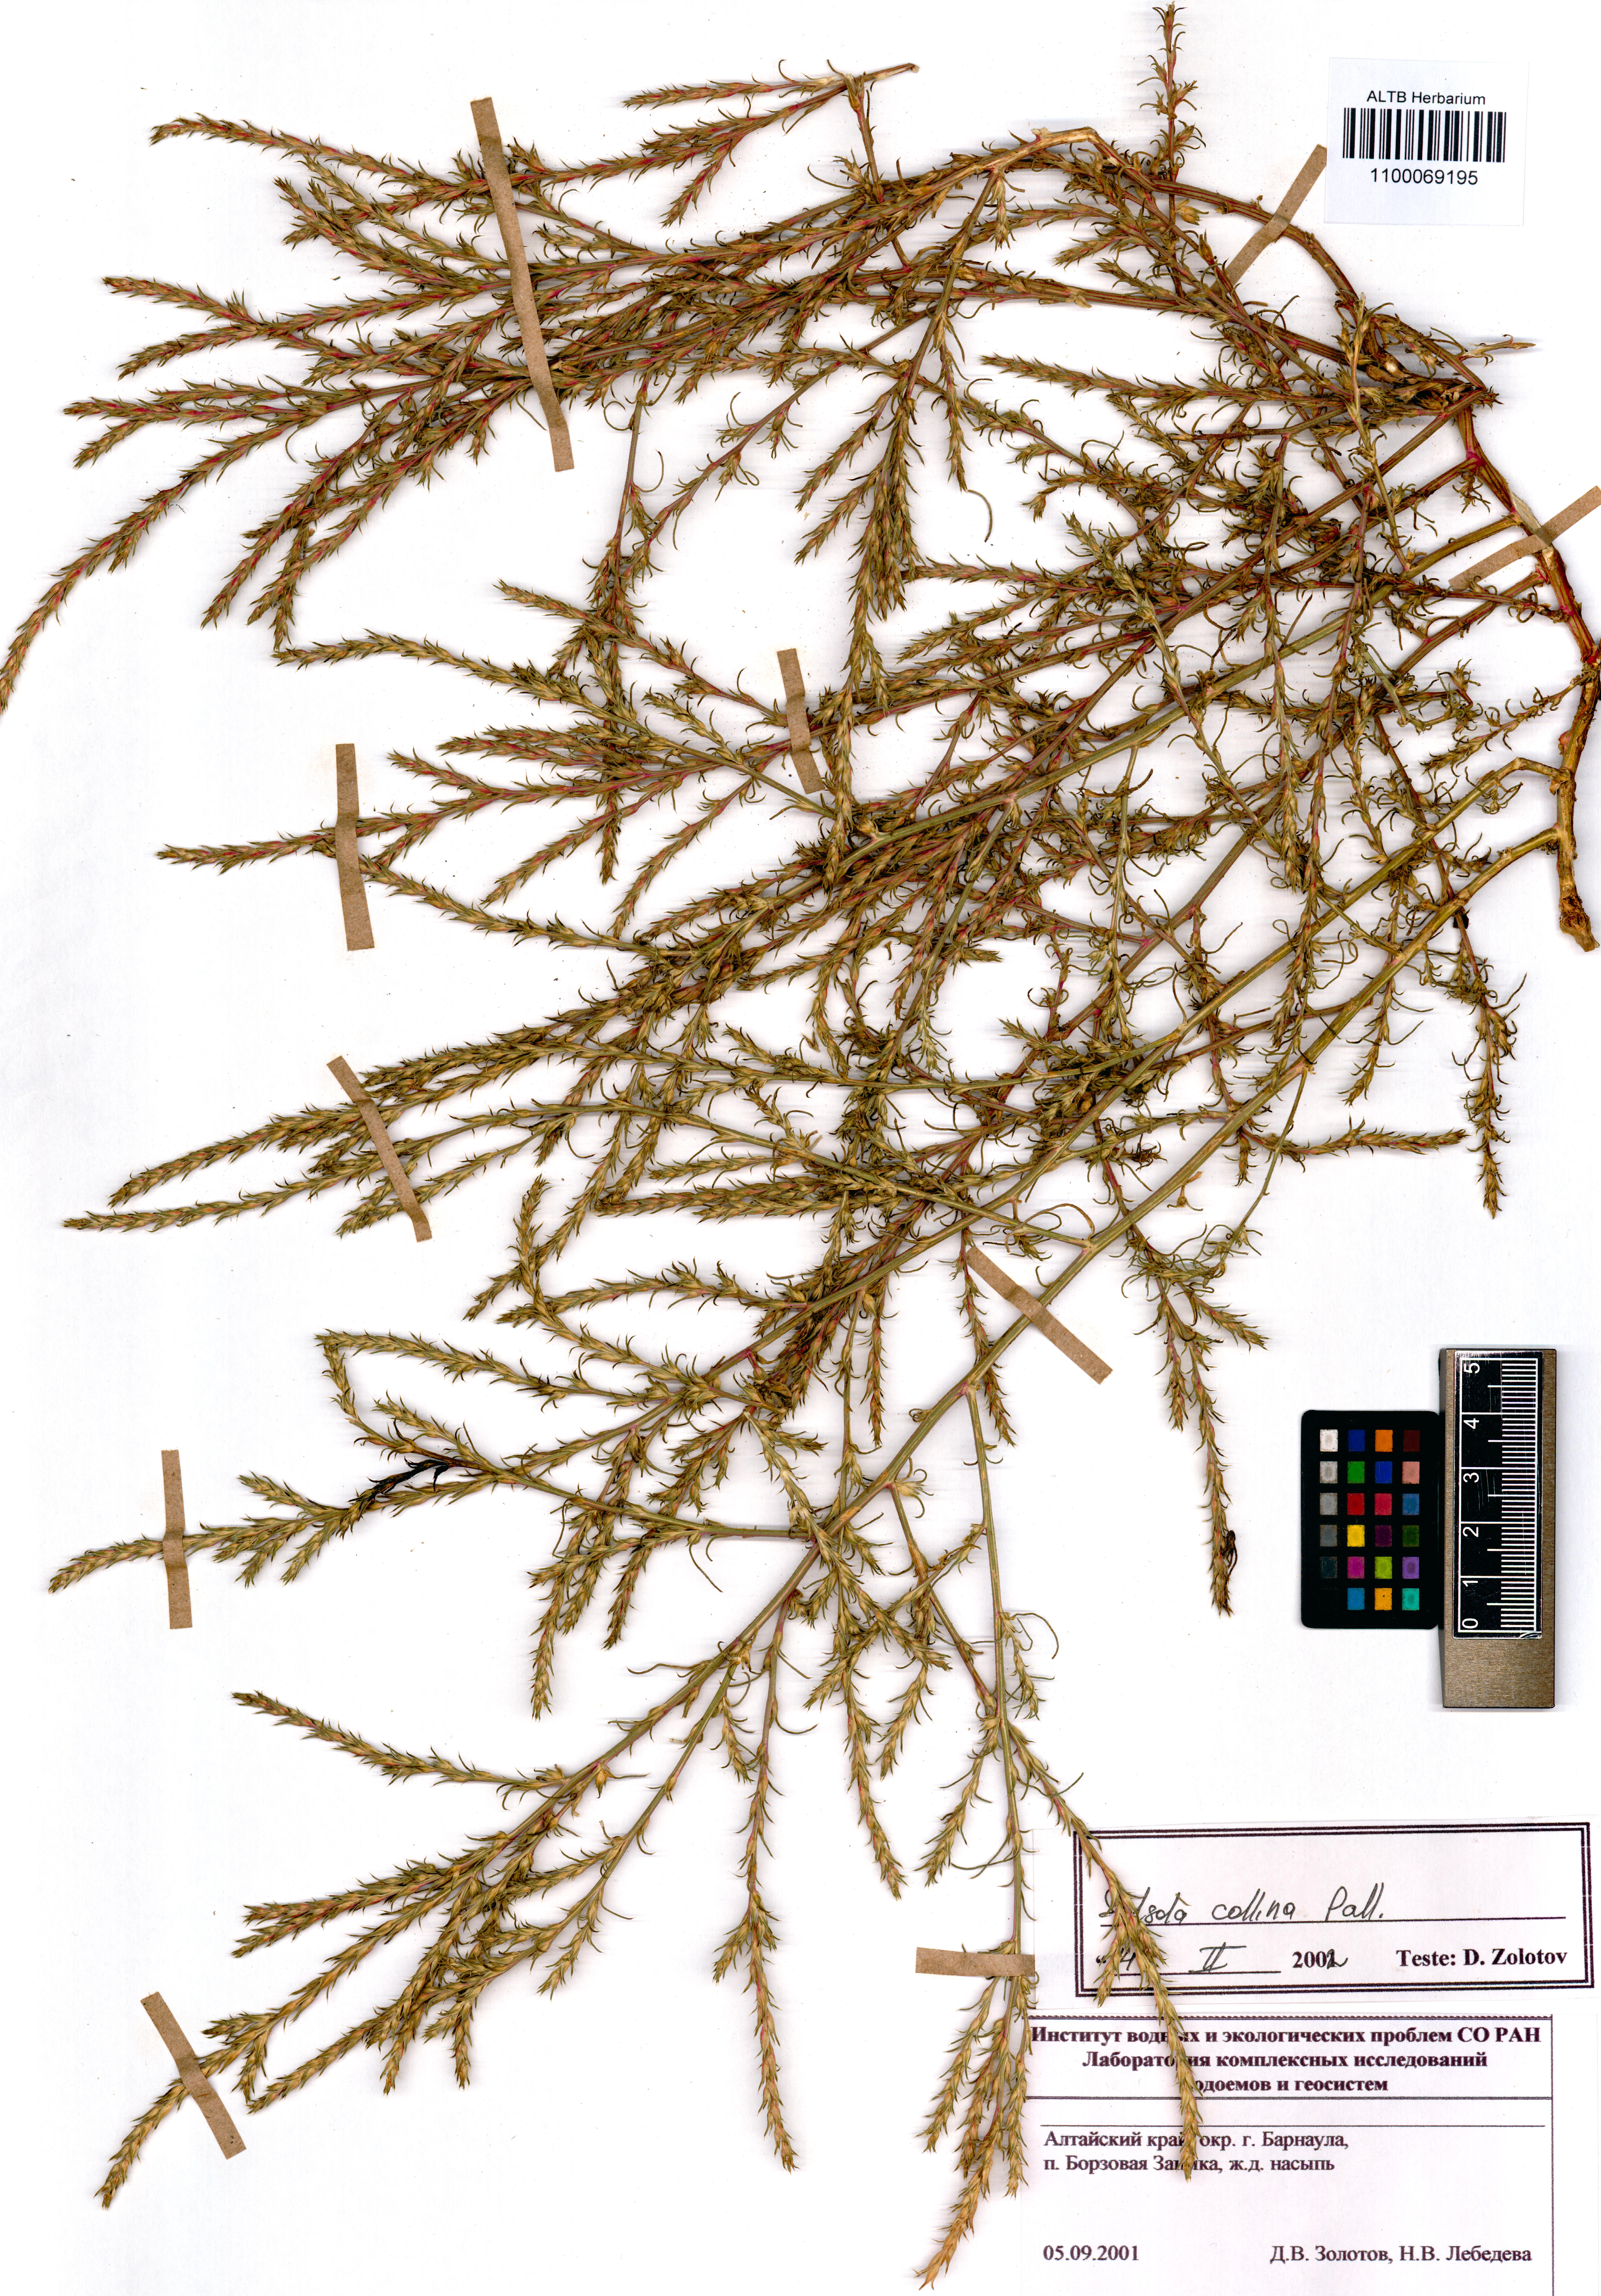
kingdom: Plantae
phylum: Tracheophyta
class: Magnoliopsida
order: Caryophyllales
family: Amaranthaceae
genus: Salsola
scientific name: Salsola collina
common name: Tumbleweed
